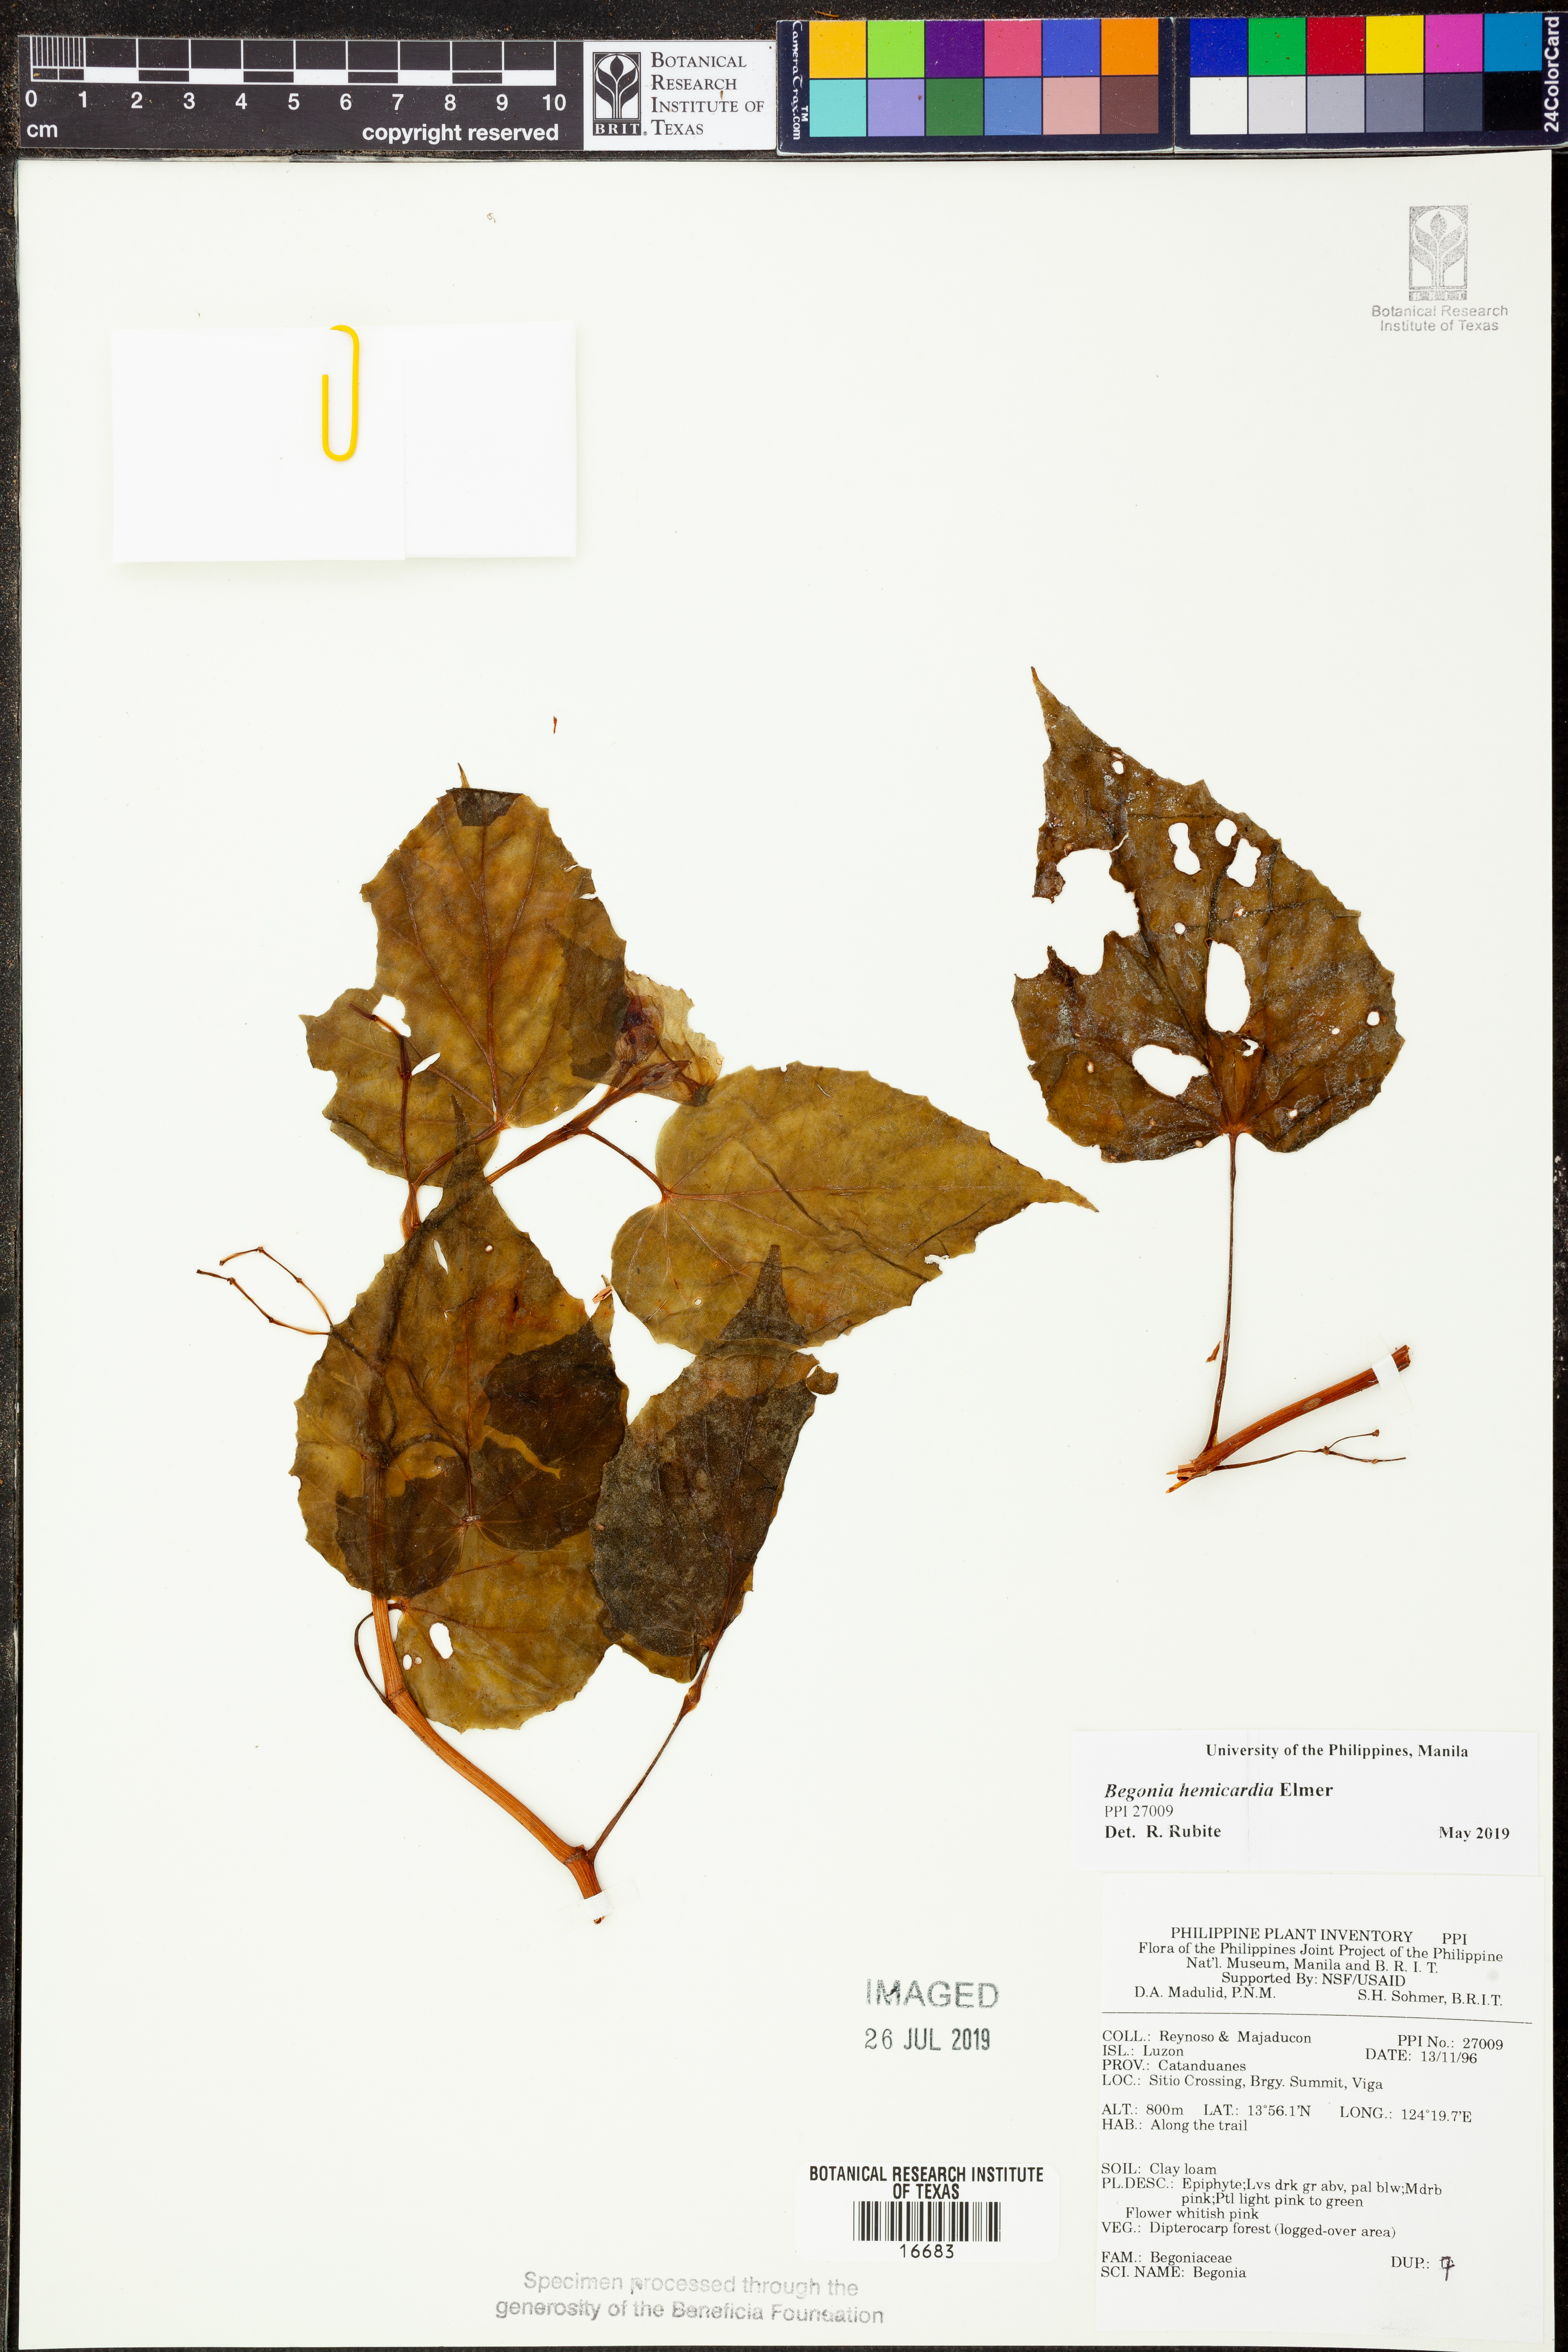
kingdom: Plantae
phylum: Tracheophyta
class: Magnoliopsida
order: Cucurbitales
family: Begoniaceae
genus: Begonia
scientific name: Begonia hemicardia
